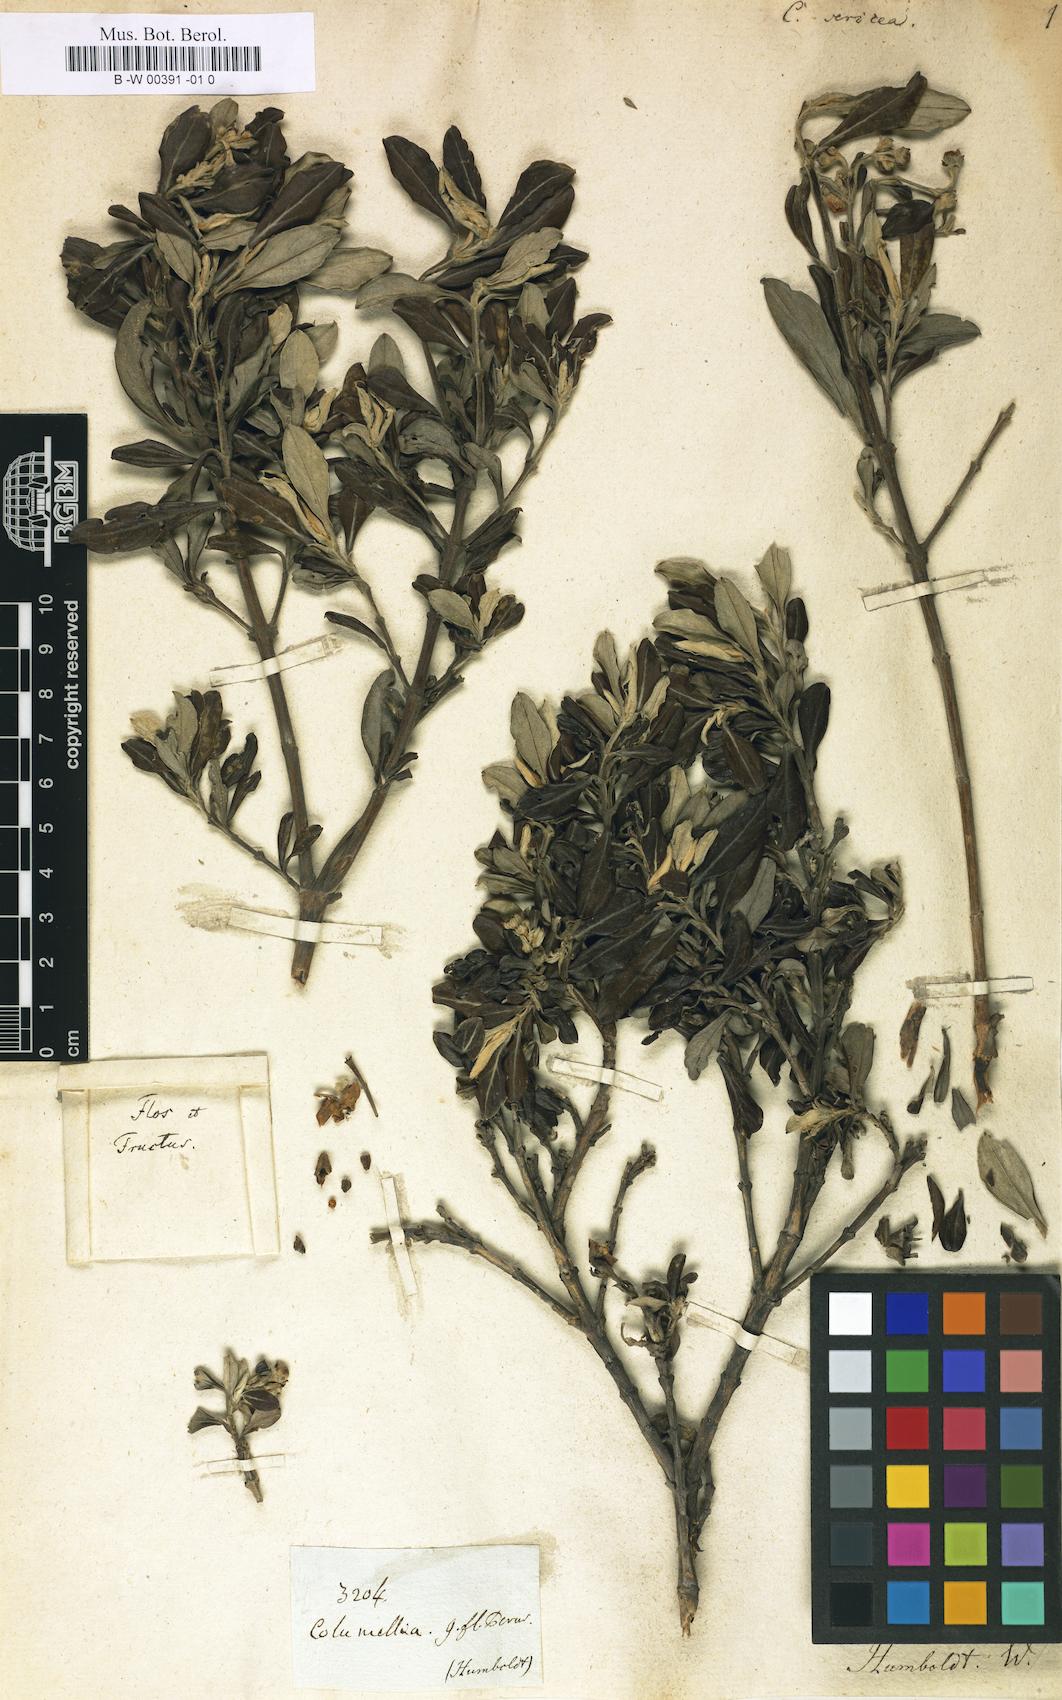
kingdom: Plantae
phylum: Tracheophyta
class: Magnoliopsida
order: Bruniales
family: Columelliaceae
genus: Columellia
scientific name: Columellia oblonga
